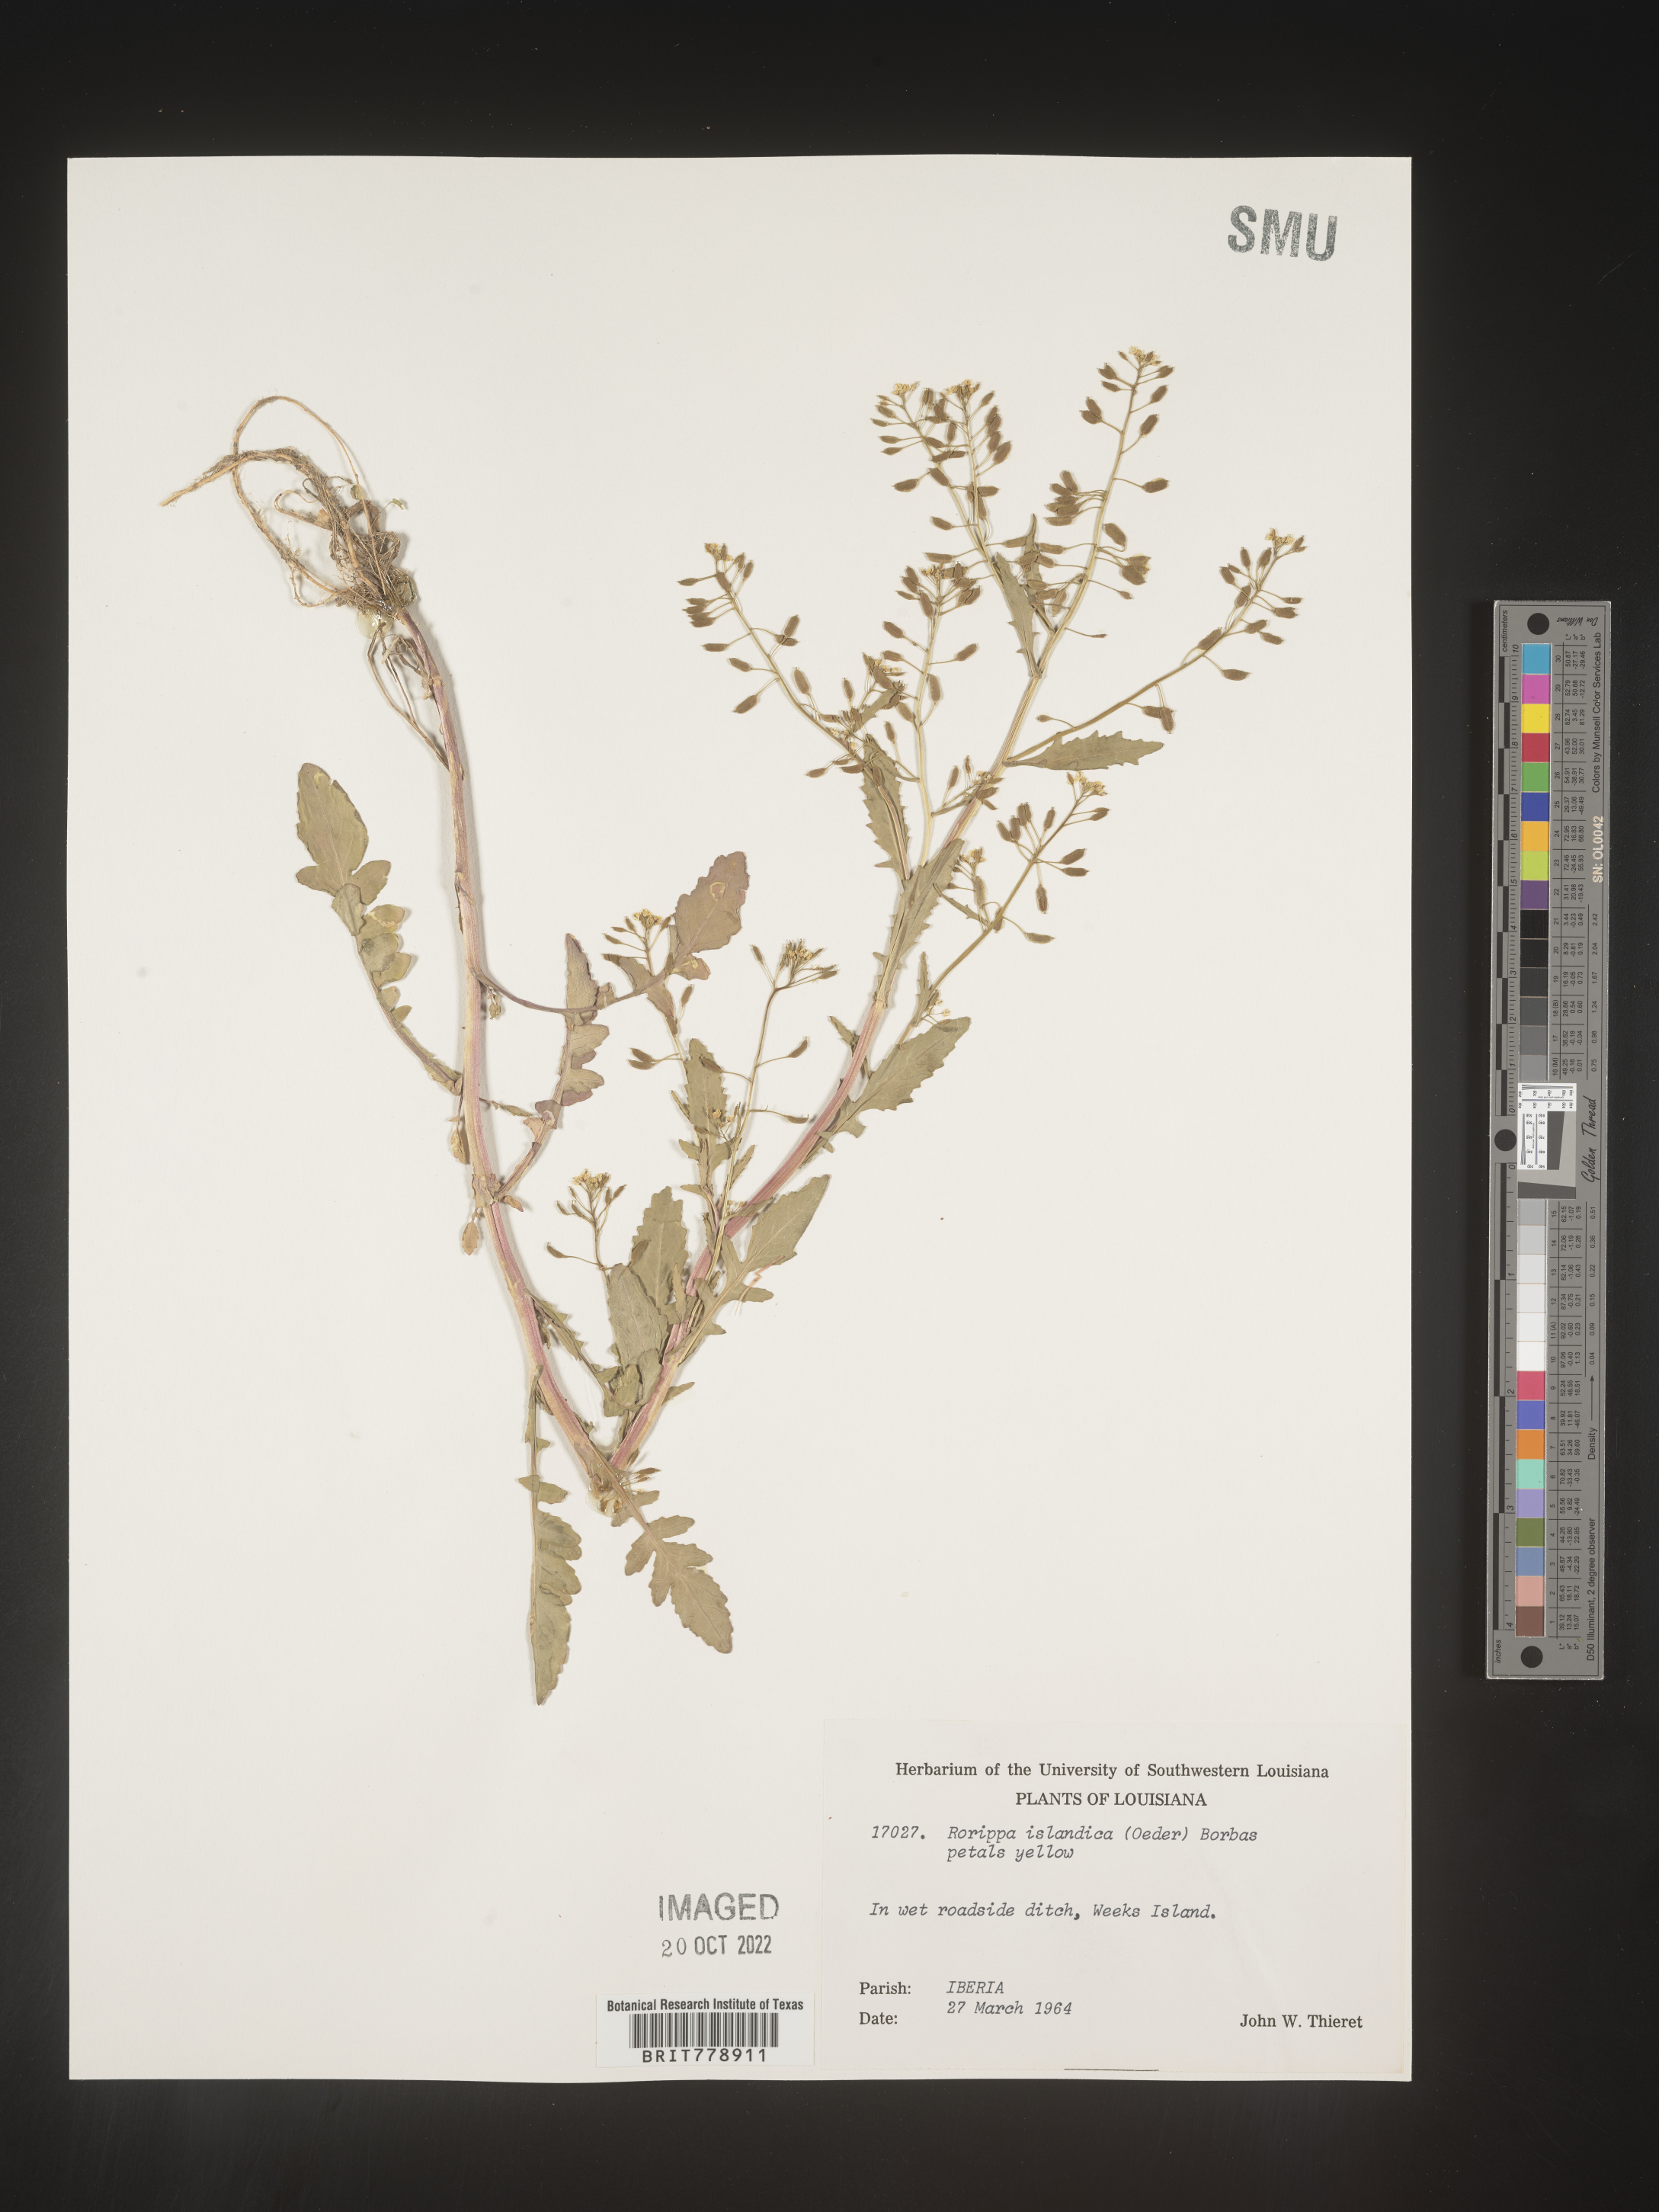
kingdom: Plantae
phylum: Tracheophyta
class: Magnoliopsida
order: Brassicales
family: Brassicaceae
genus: Rorippa
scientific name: Rorippa palustris
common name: Marsh yellow-cress
